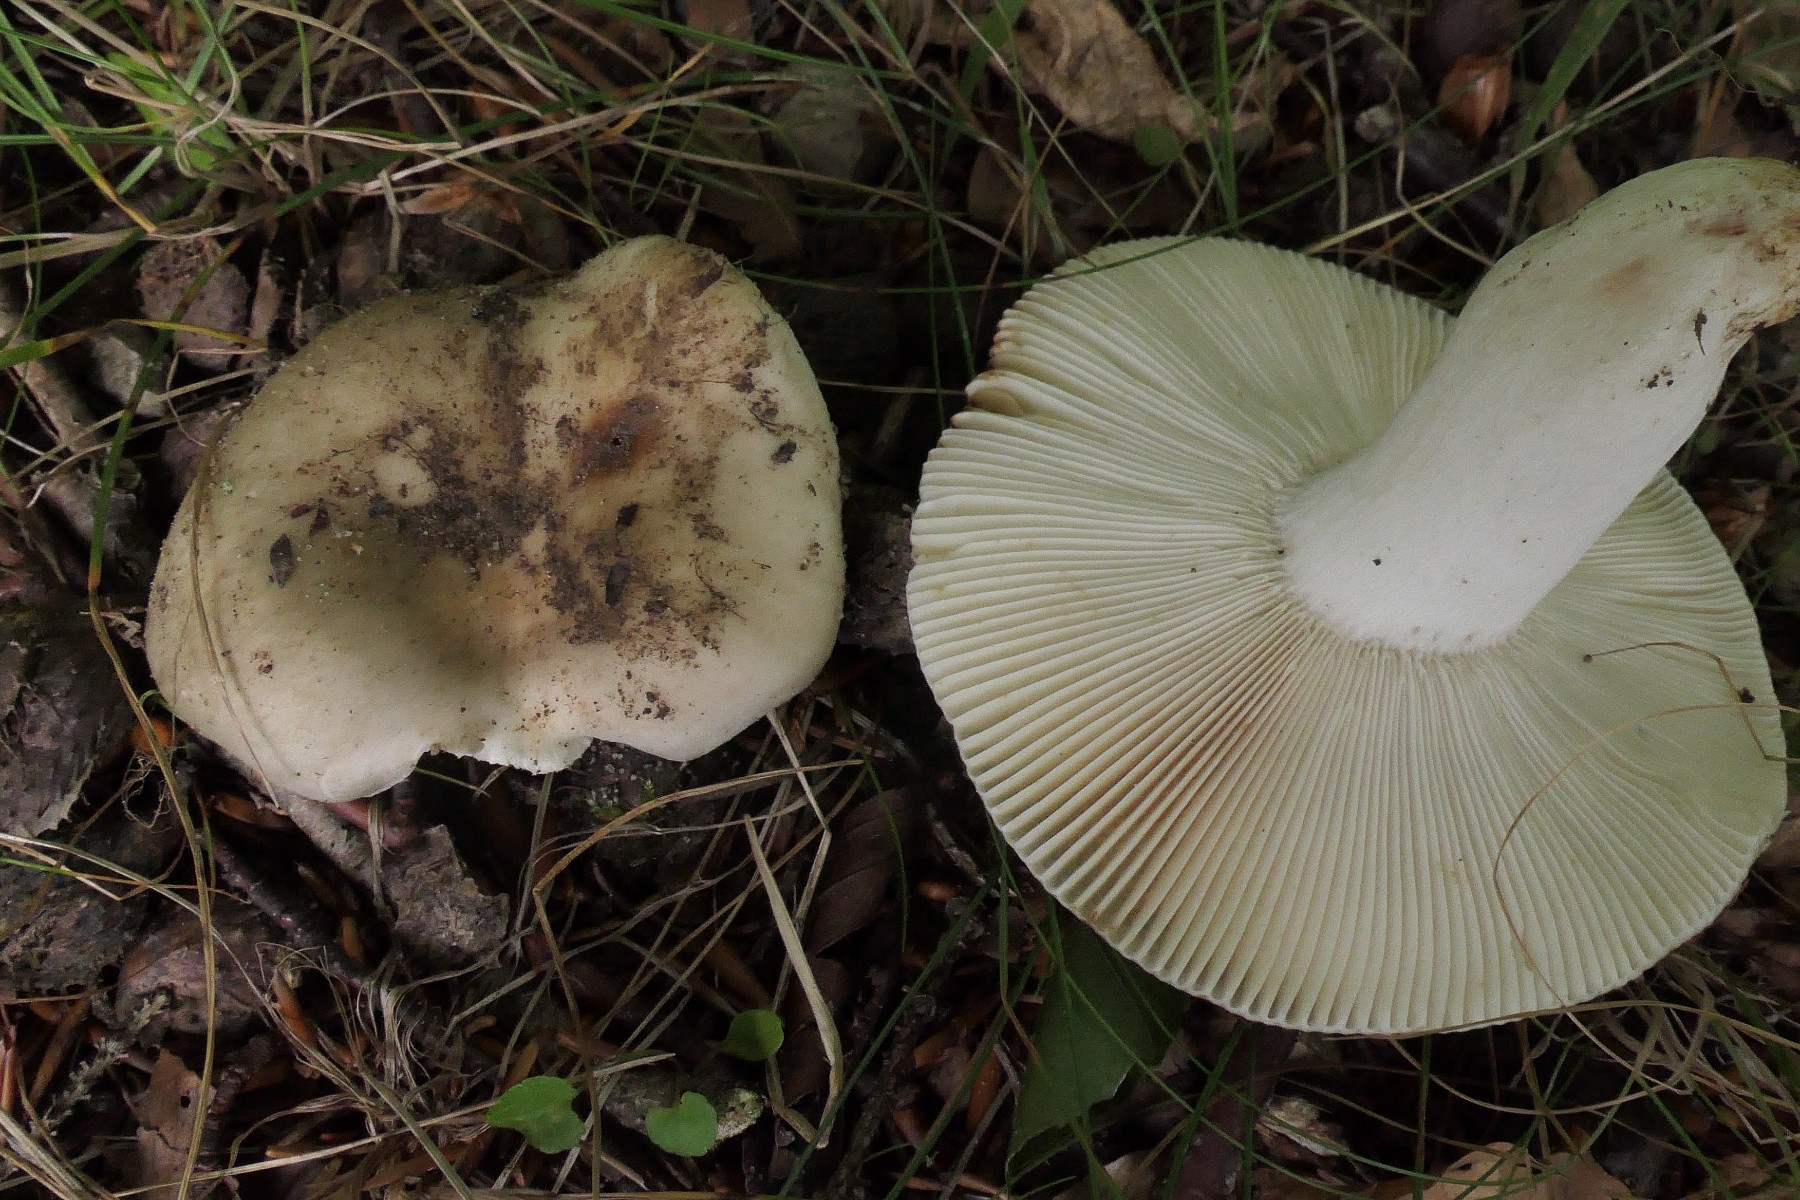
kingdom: Fungi
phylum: Basidiomycota
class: Agaricomycetes
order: Russulales
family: Russulaceae
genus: Russula
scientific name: Russula faustiana
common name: olivengrå skørhat
